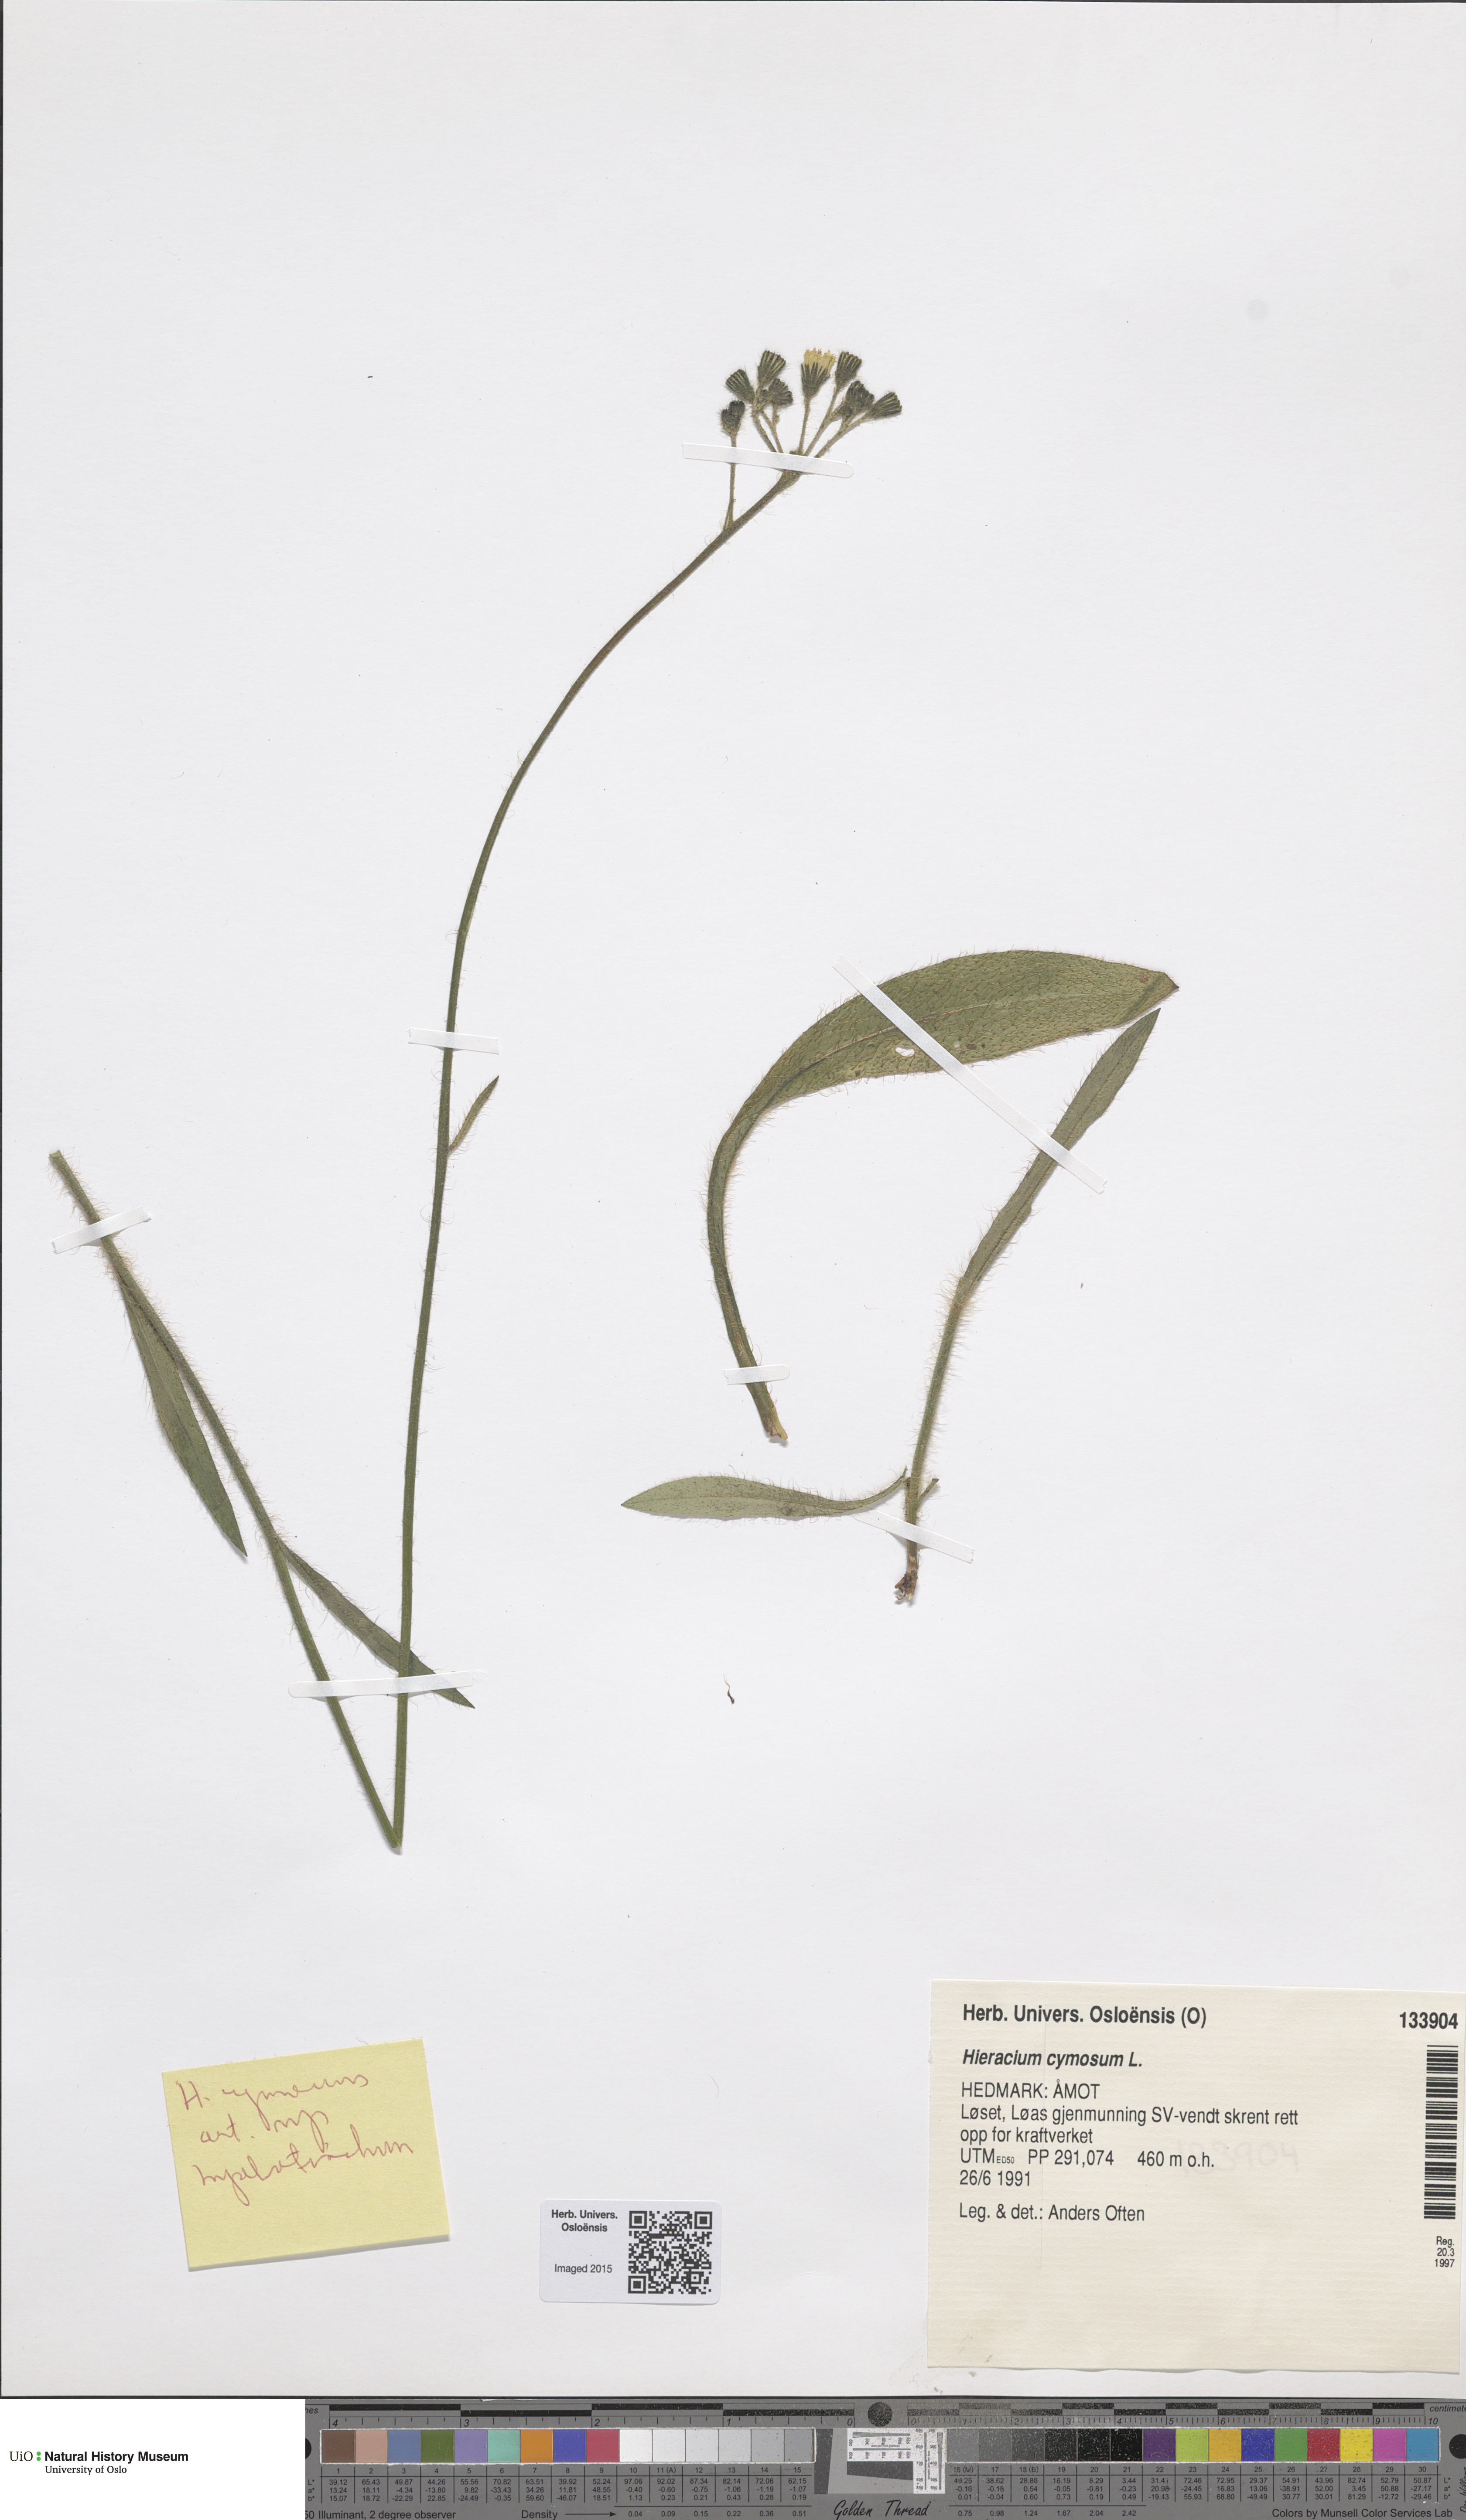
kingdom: Plantae
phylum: Tracheophyta
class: Magnoliopsida
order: Asterales
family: Asteraceae
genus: Pilosella
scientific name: Pilosella cymosa
